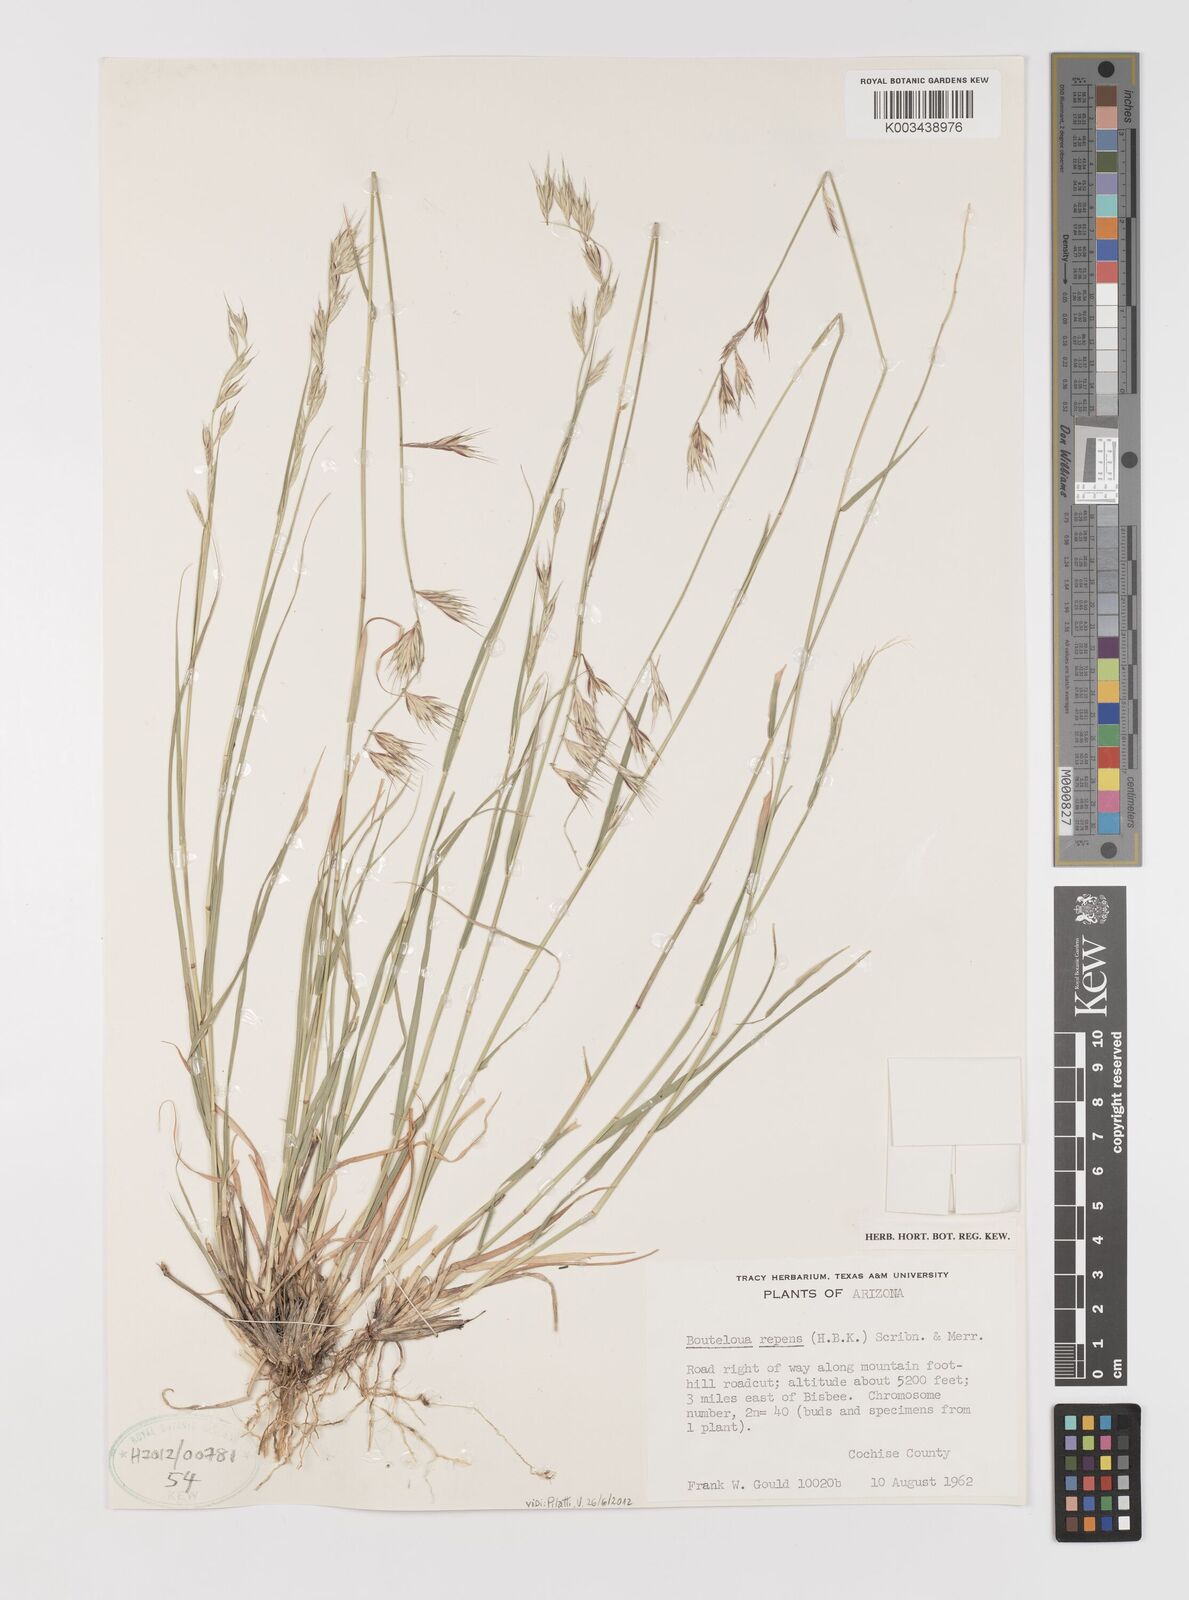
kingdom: Plantae
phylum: Tracheophyta
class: Liliopsida
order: Poales
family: Poaceae
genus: Bouteloua
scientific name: Bouteloua repens
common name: Slender grama
